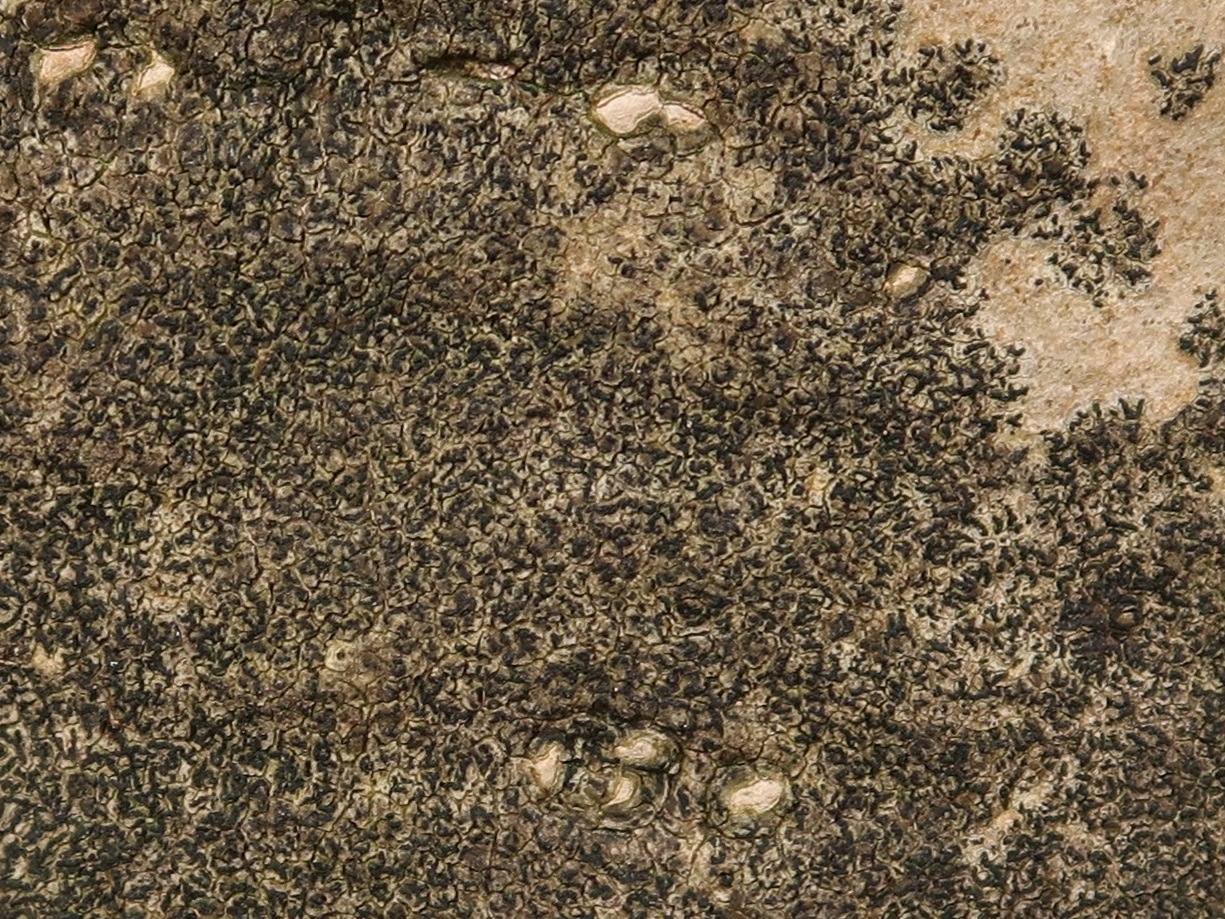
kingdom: Fungi
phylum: Ascomycota
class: Arthoniomycetes
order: Arthoniales
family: Roccellaceae
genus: Pseudoschismatomma
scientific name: Pseudoschismatomma rufescens
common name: brun bogstavlav
